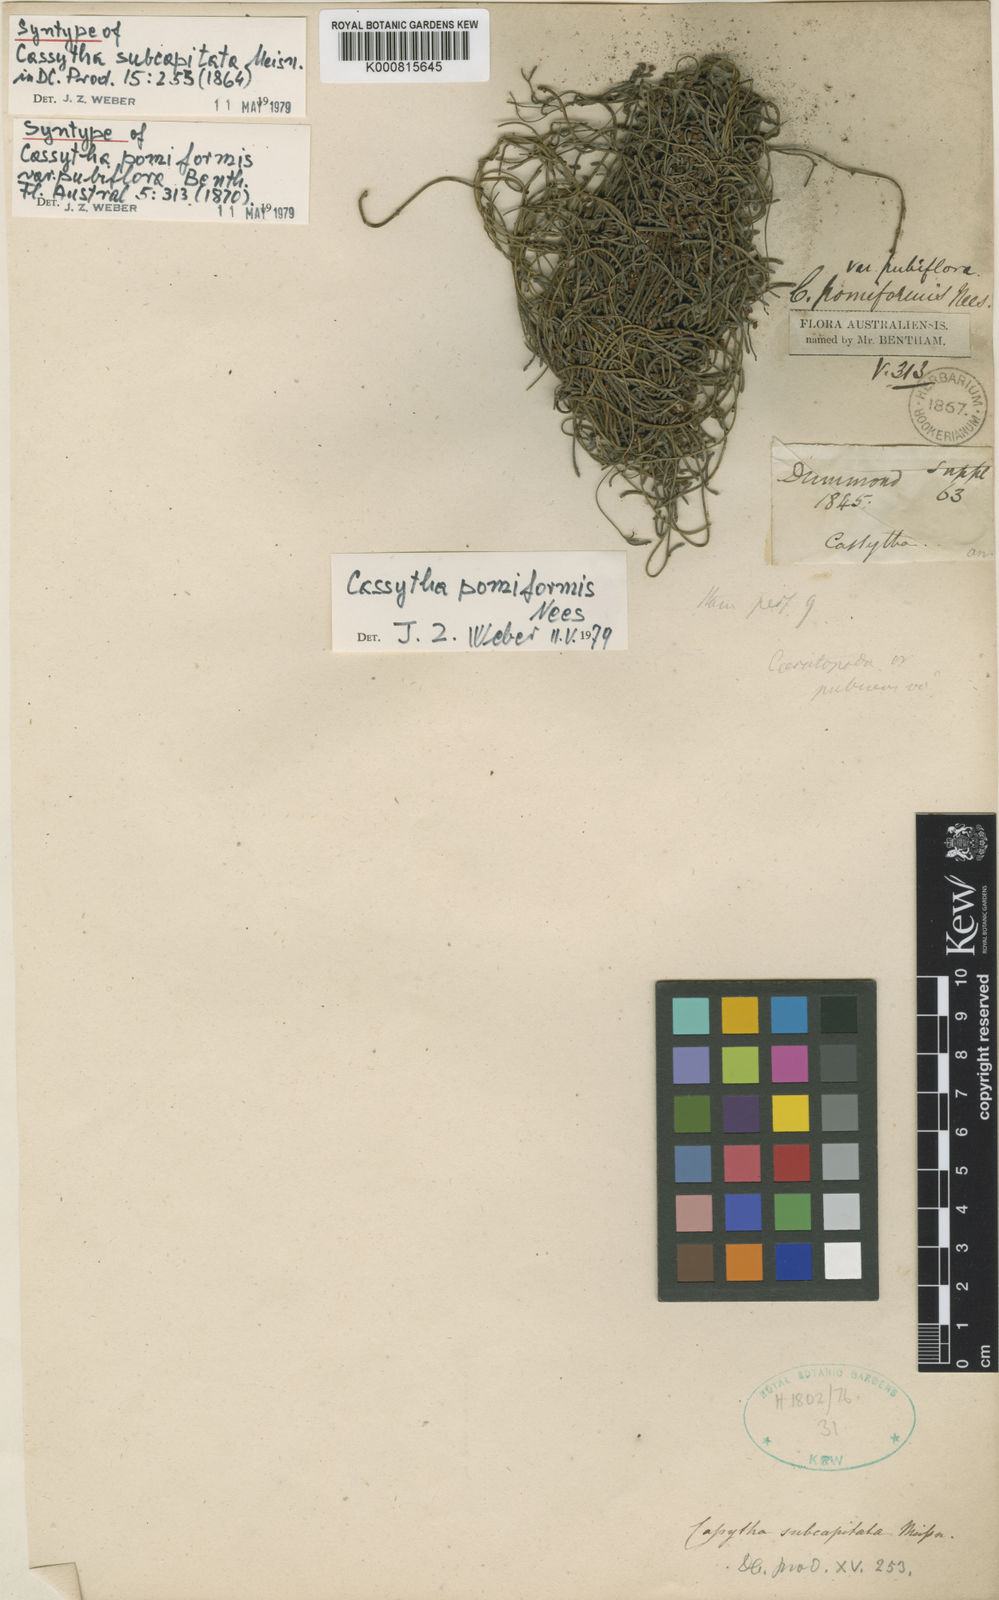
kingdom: Plantae
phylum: Tracheophyta
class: Magnoliopsida
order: Laurales
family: Lauraceae
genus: Cassytha
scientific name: Cassytha pomiformis
